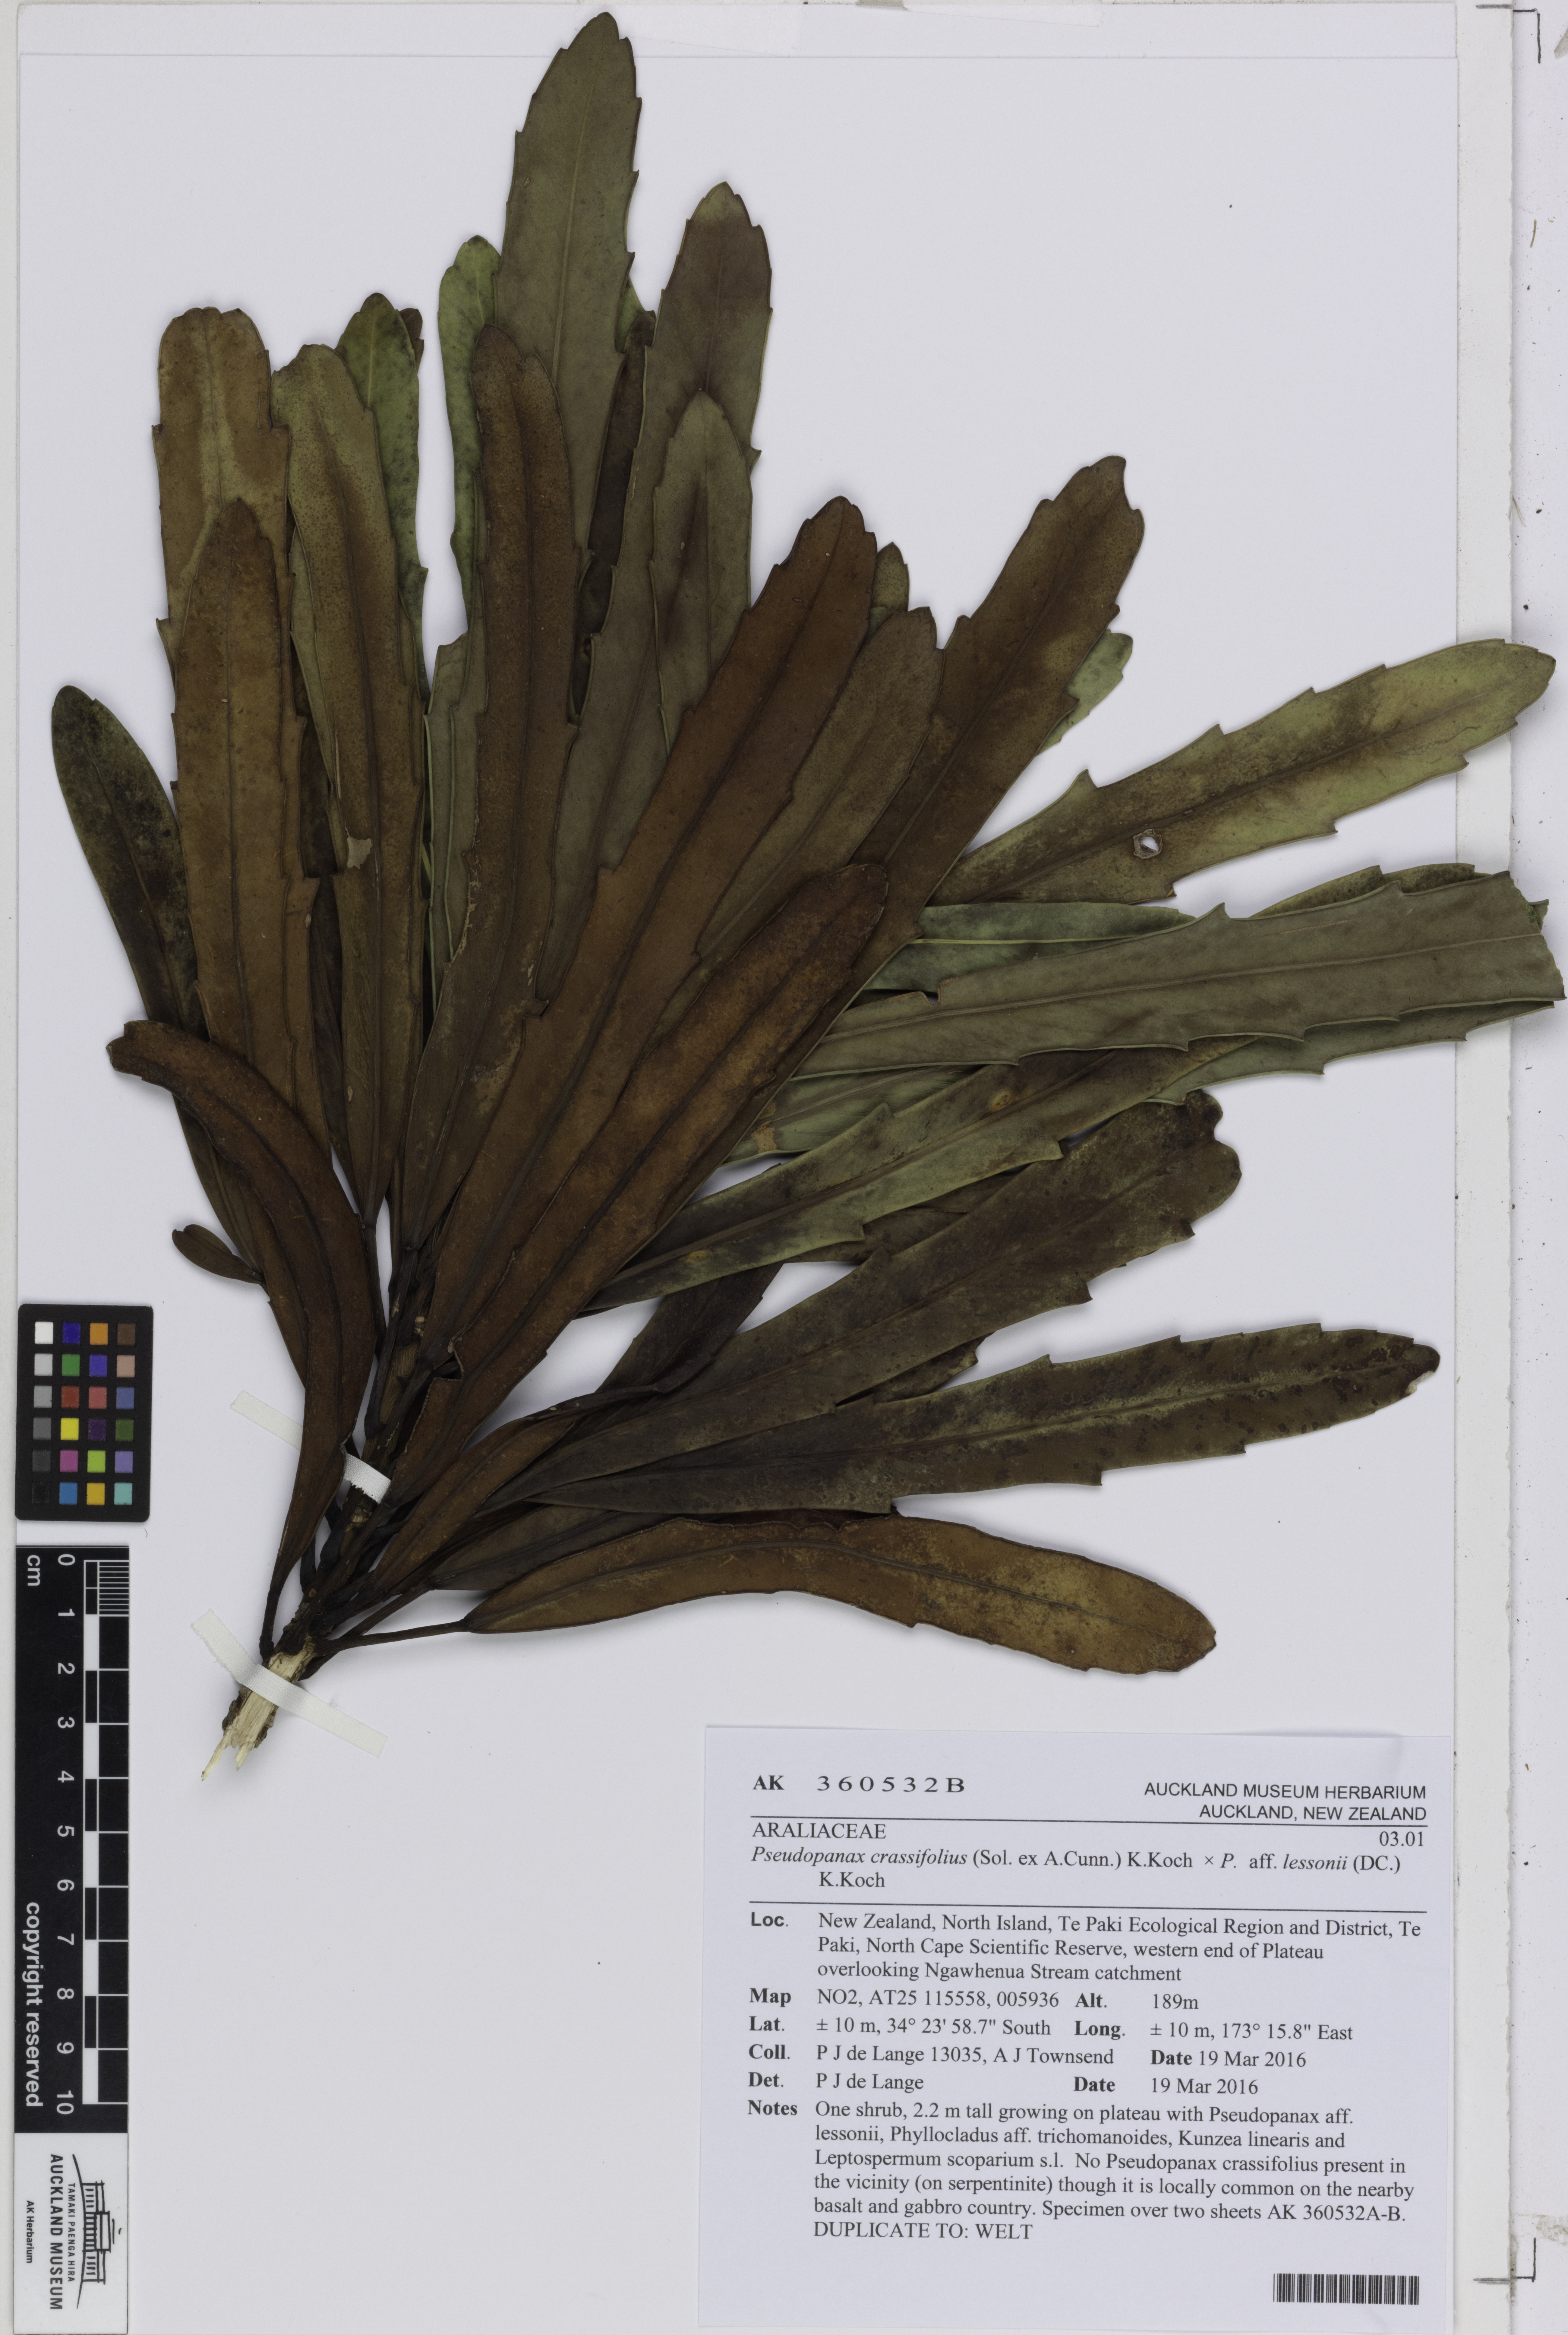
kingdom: Plantae
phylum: Tracheophyta
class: Magnoliopsida
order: Apiales
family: Araliaceae
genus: Pseudopanax
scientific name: Pseudopanax
